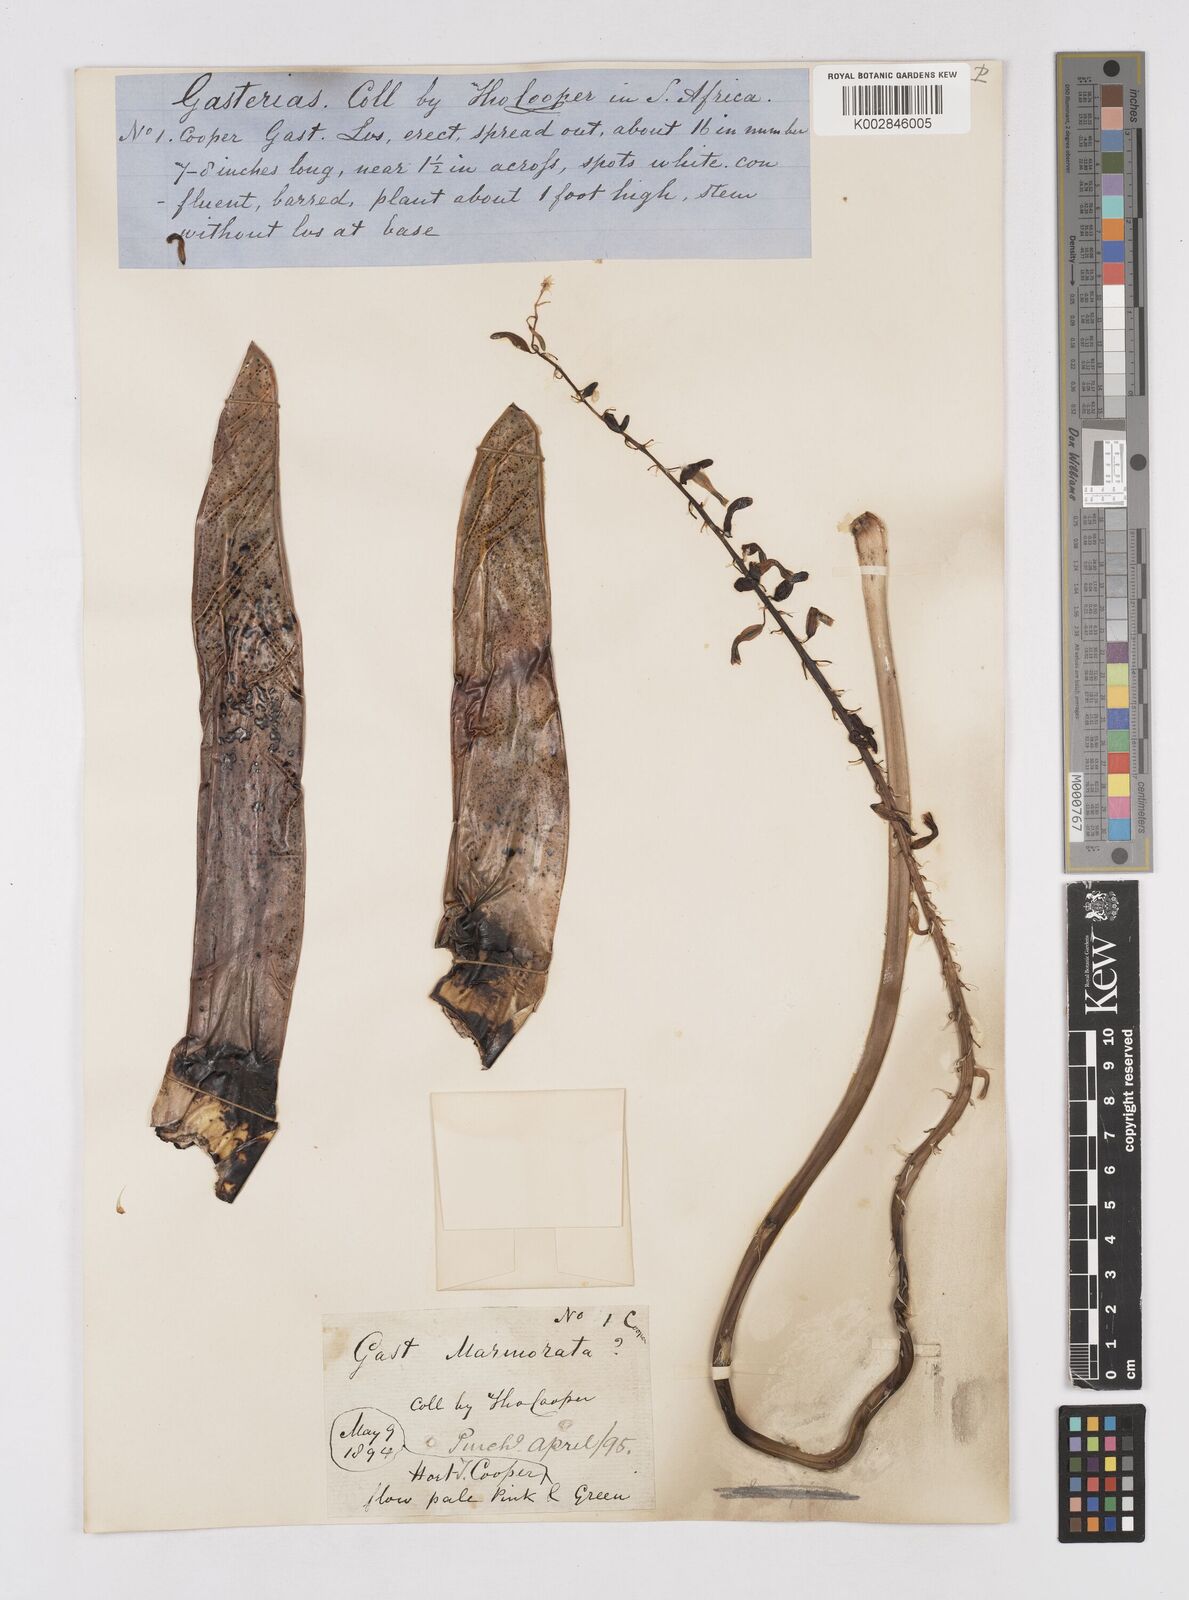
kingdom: Plantae
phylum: Tracheophyta
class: Liliopsida
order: Asparagales
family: Asphodelaceae
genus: Gasteria
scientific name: Gasteria obliqua
